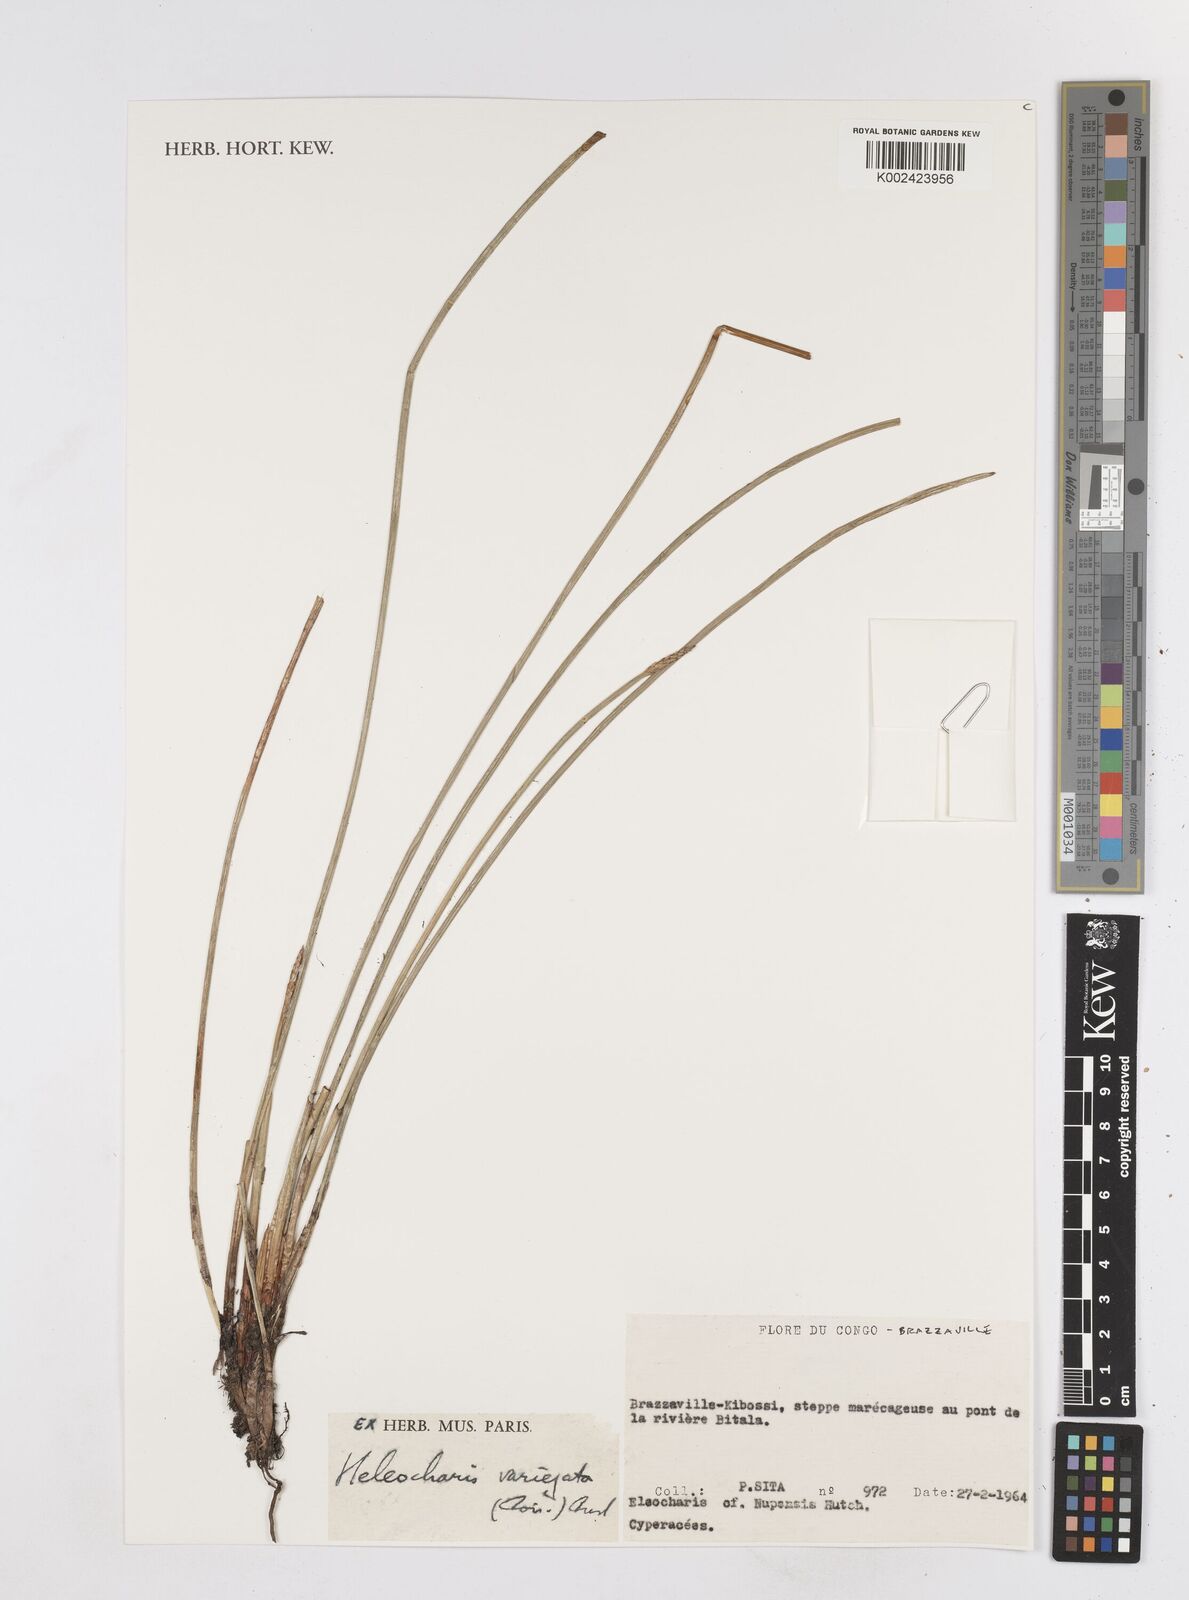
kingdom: Plantae
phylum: Tracheophyta
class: Liliopsida
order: Poales
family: Cyperaceae
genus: Eleocharis
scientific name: Eleocharis variegata
